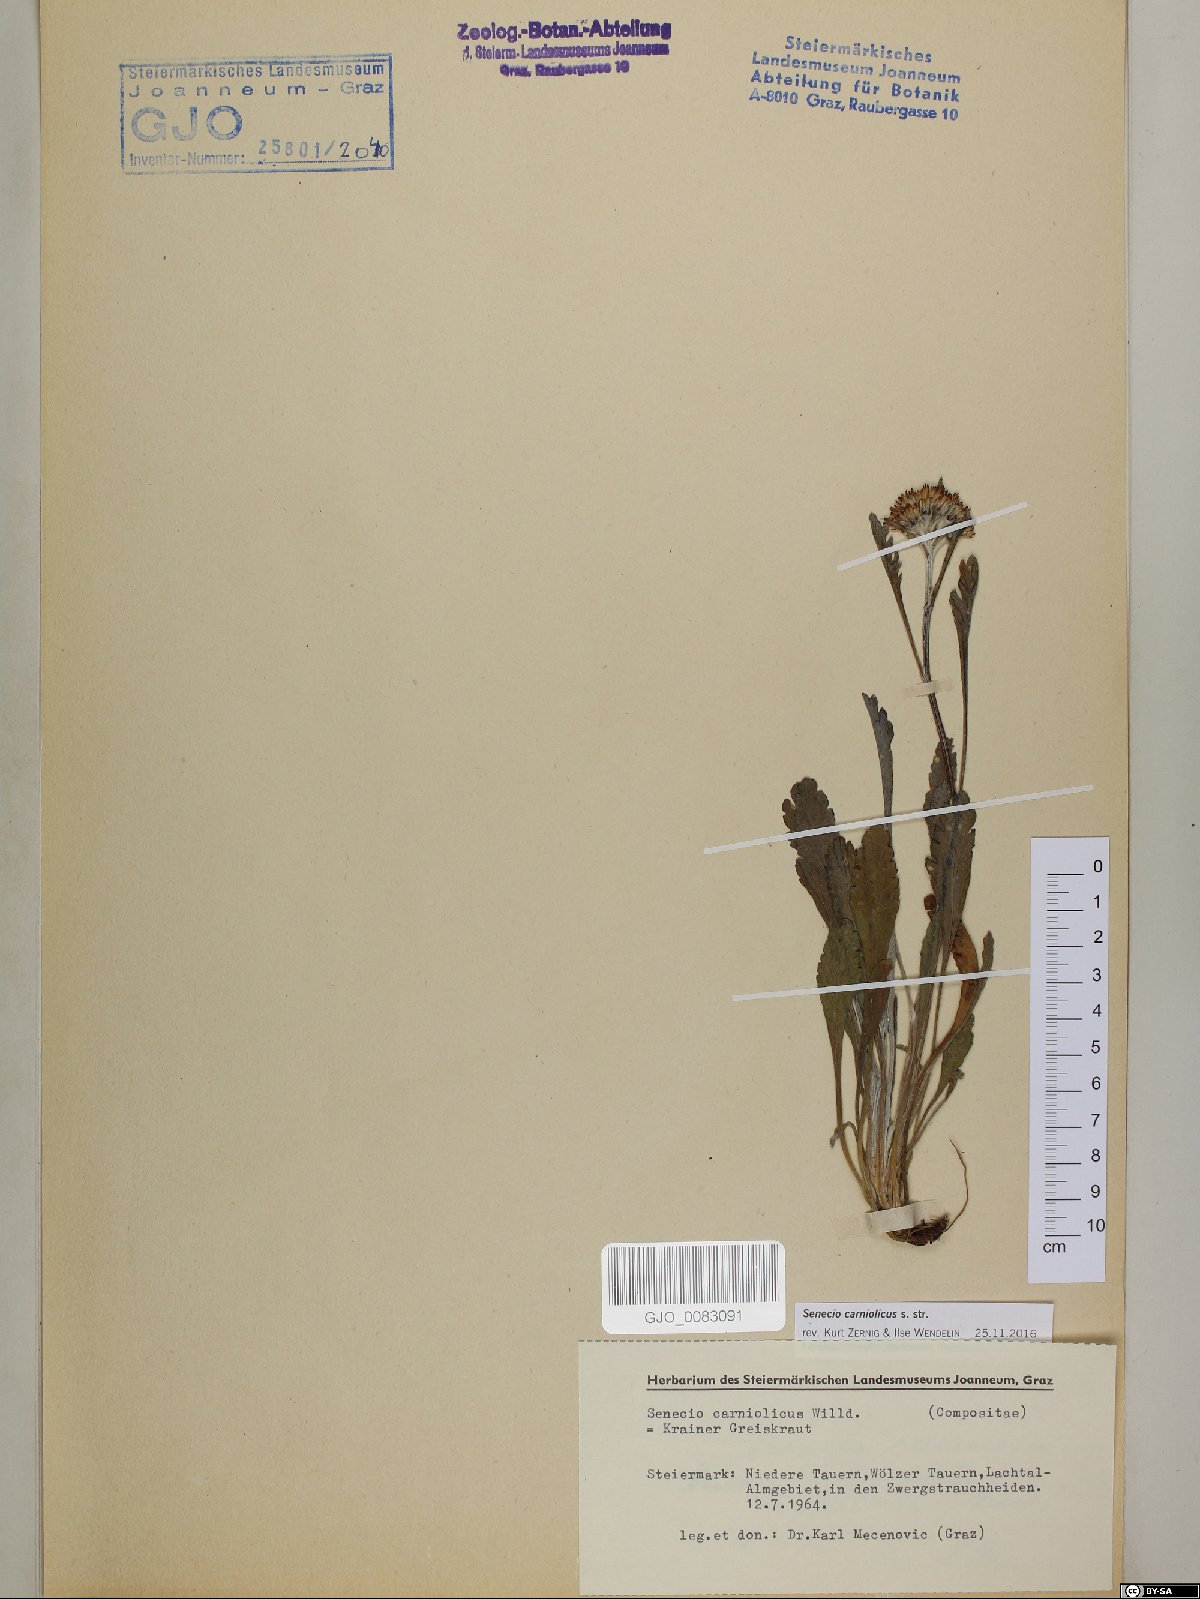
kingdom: Plantae
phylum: Tracheophyta
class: Magnoliopsida
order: Asterales
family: Asteraceae
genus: Jacobaea
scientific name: Jacobaea carniolica
